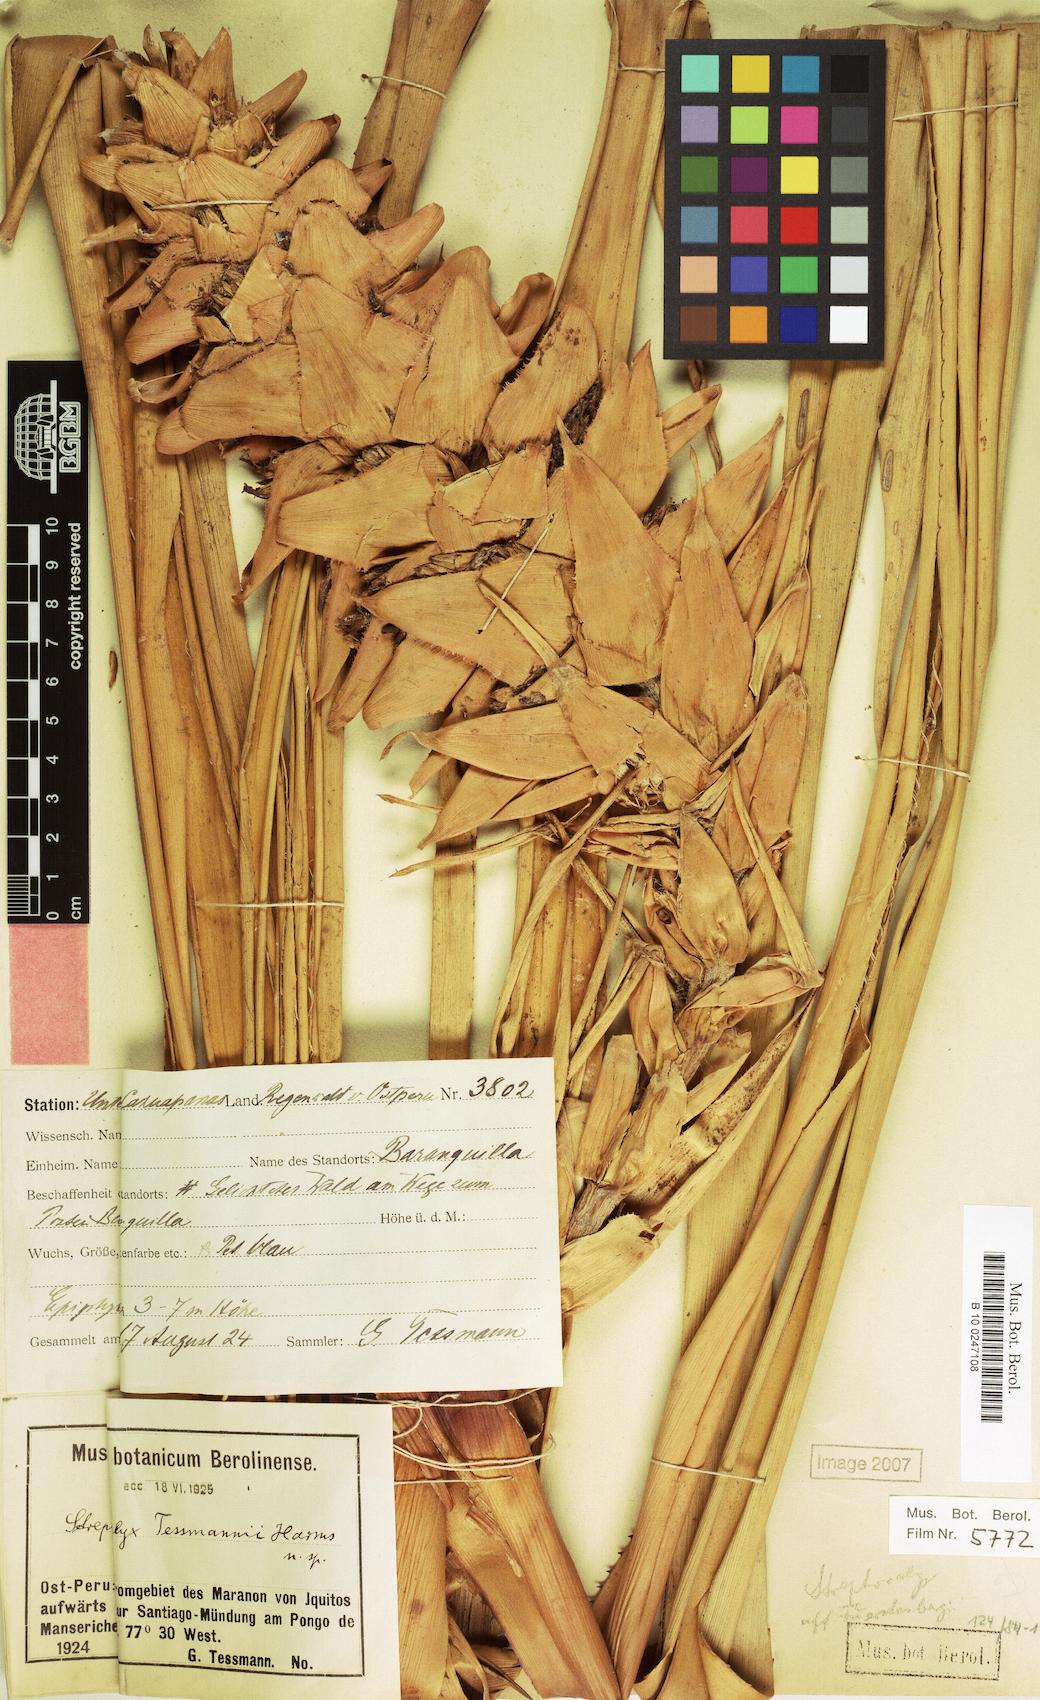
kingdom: Plantae
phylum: Tracheophyta
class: Liliopsida
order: Poales
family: Bromeliaceae
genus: Aechmea
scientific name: Aechmea poitaei
